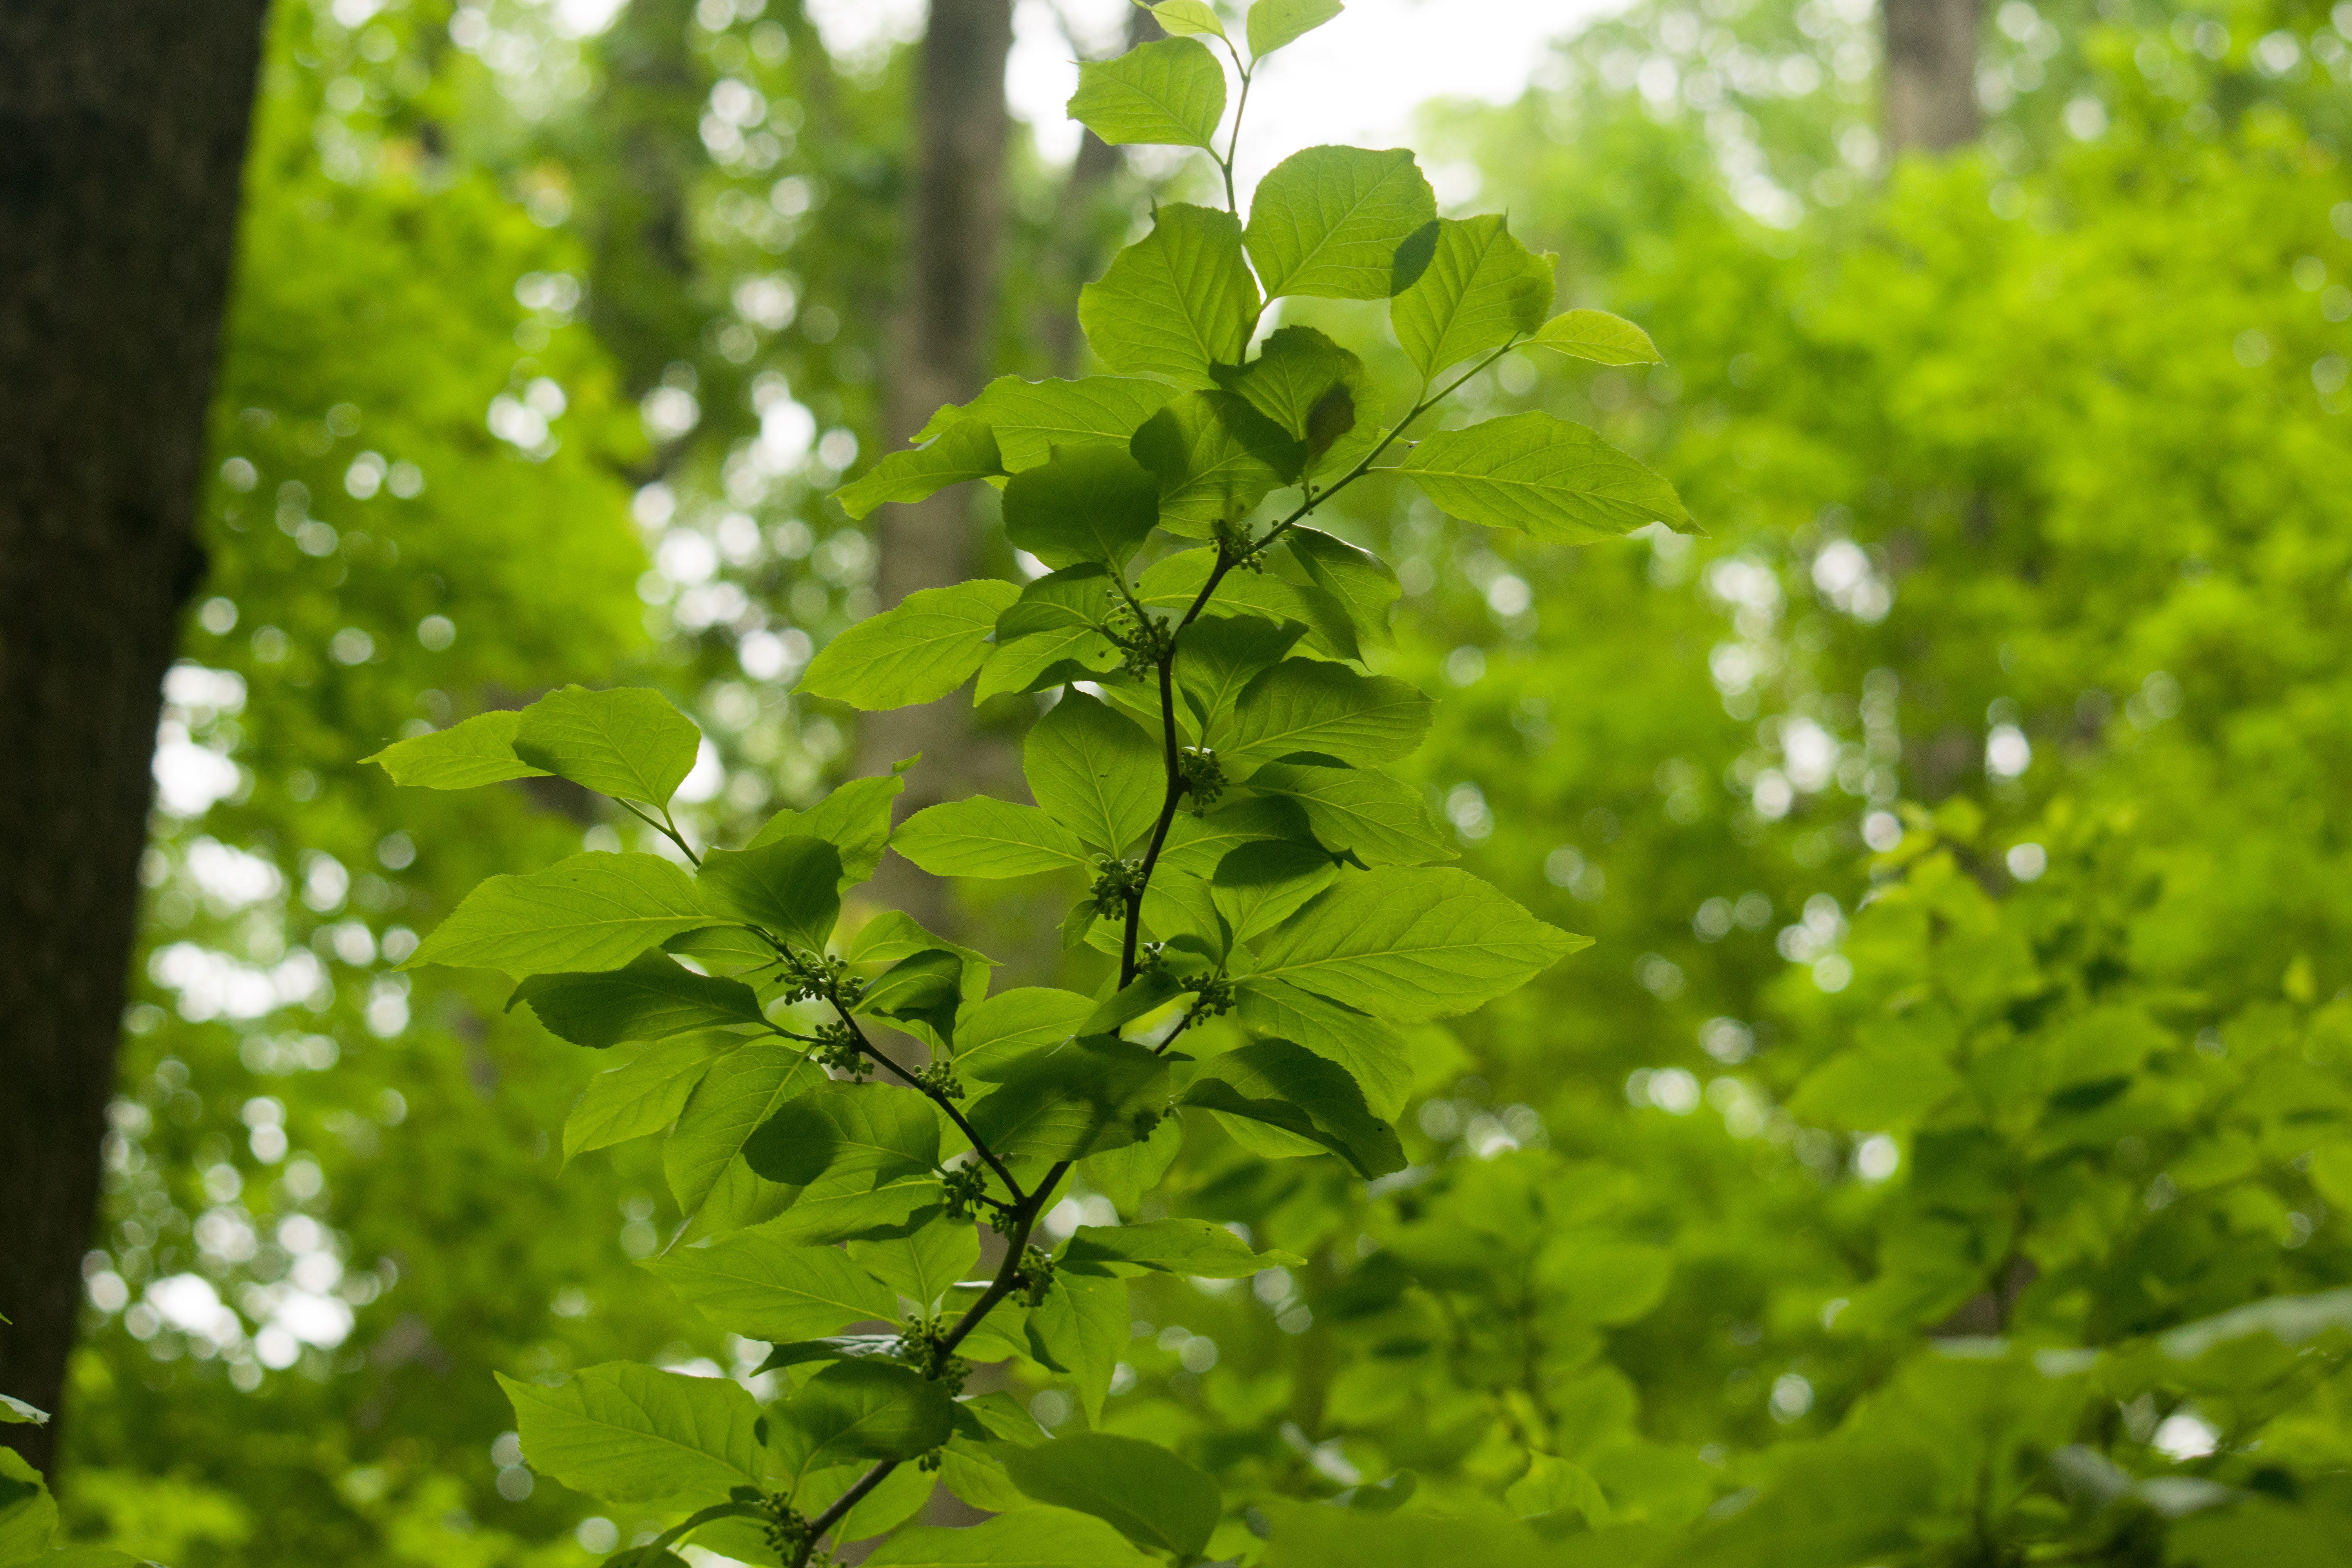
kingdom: Plantae
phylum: Tracheophyta
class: Magnoliopsida
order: Aquifoliales
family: Aquifoliaceae
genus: Ilex
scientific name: Ilex montana
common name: Mountain Holly
